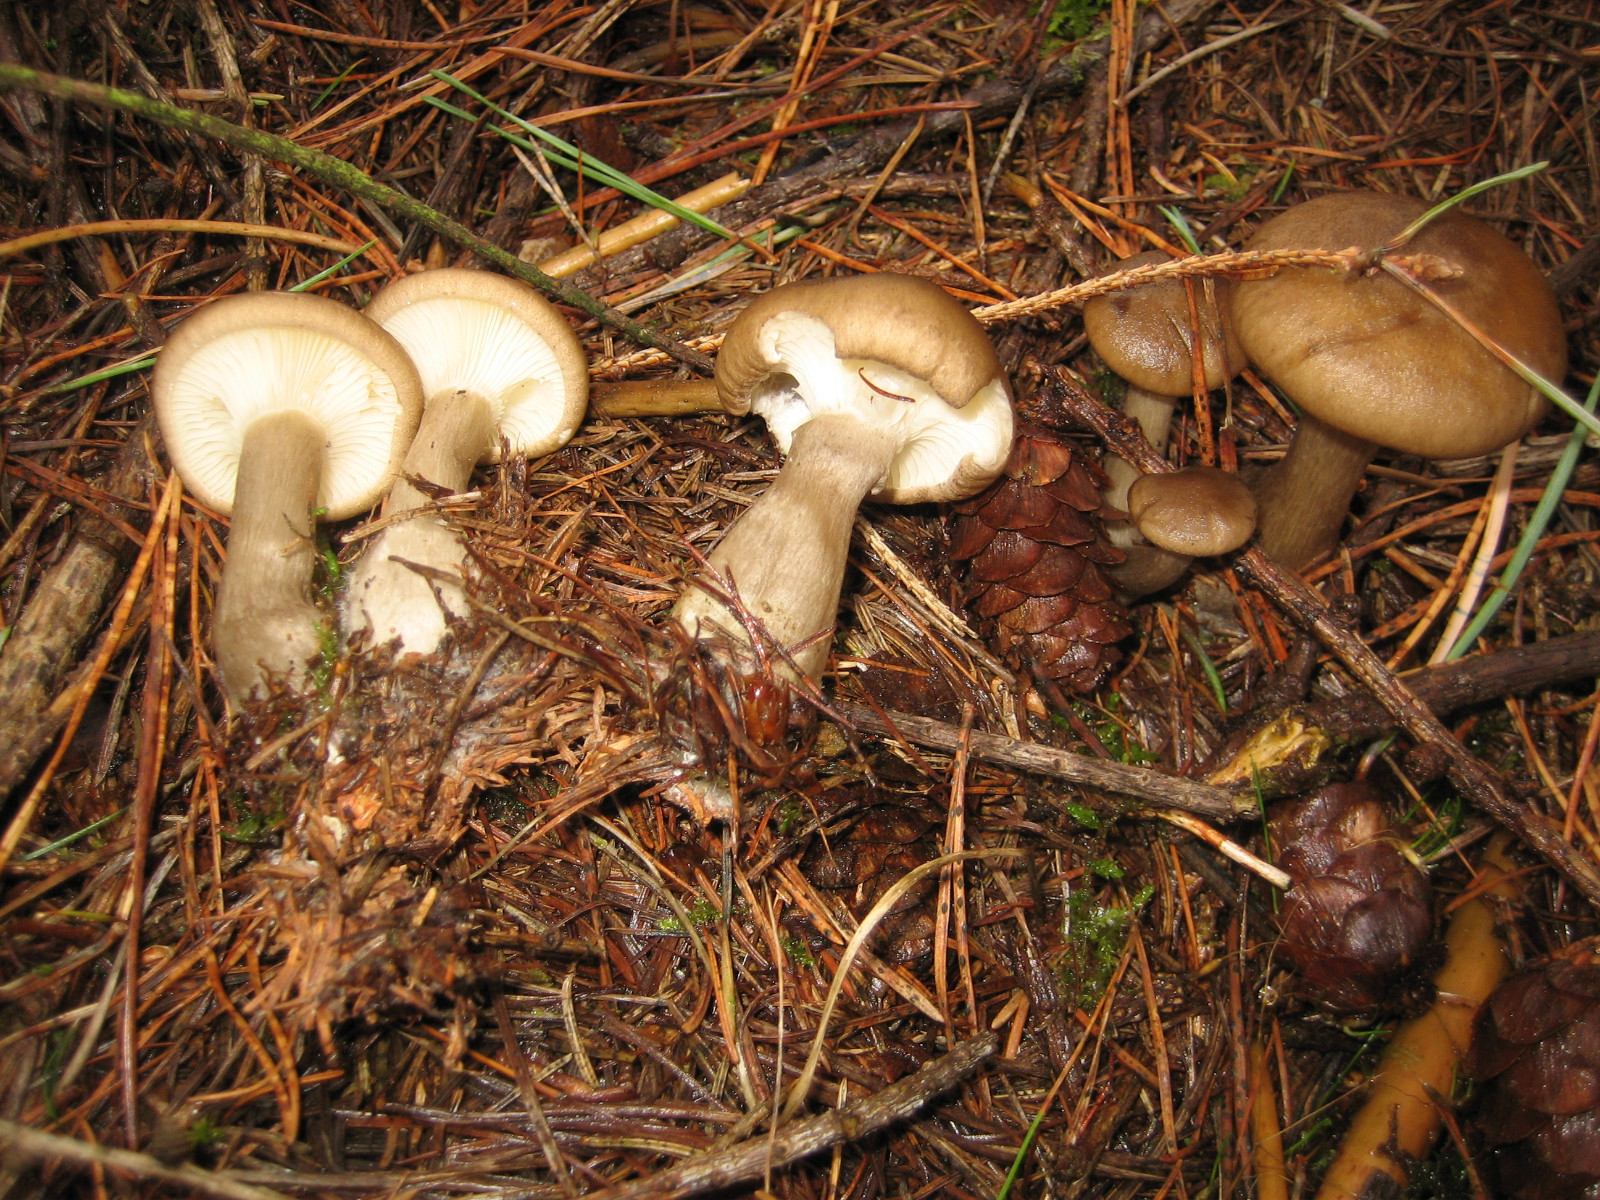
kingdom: Fungi
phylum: Basidiomycota
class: Agaricomycetes
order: Agaricales
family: Hygrophoraceae
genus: Ampulloclitocybe
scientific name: Ampulloclitocybe clavipes
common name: køllefod
